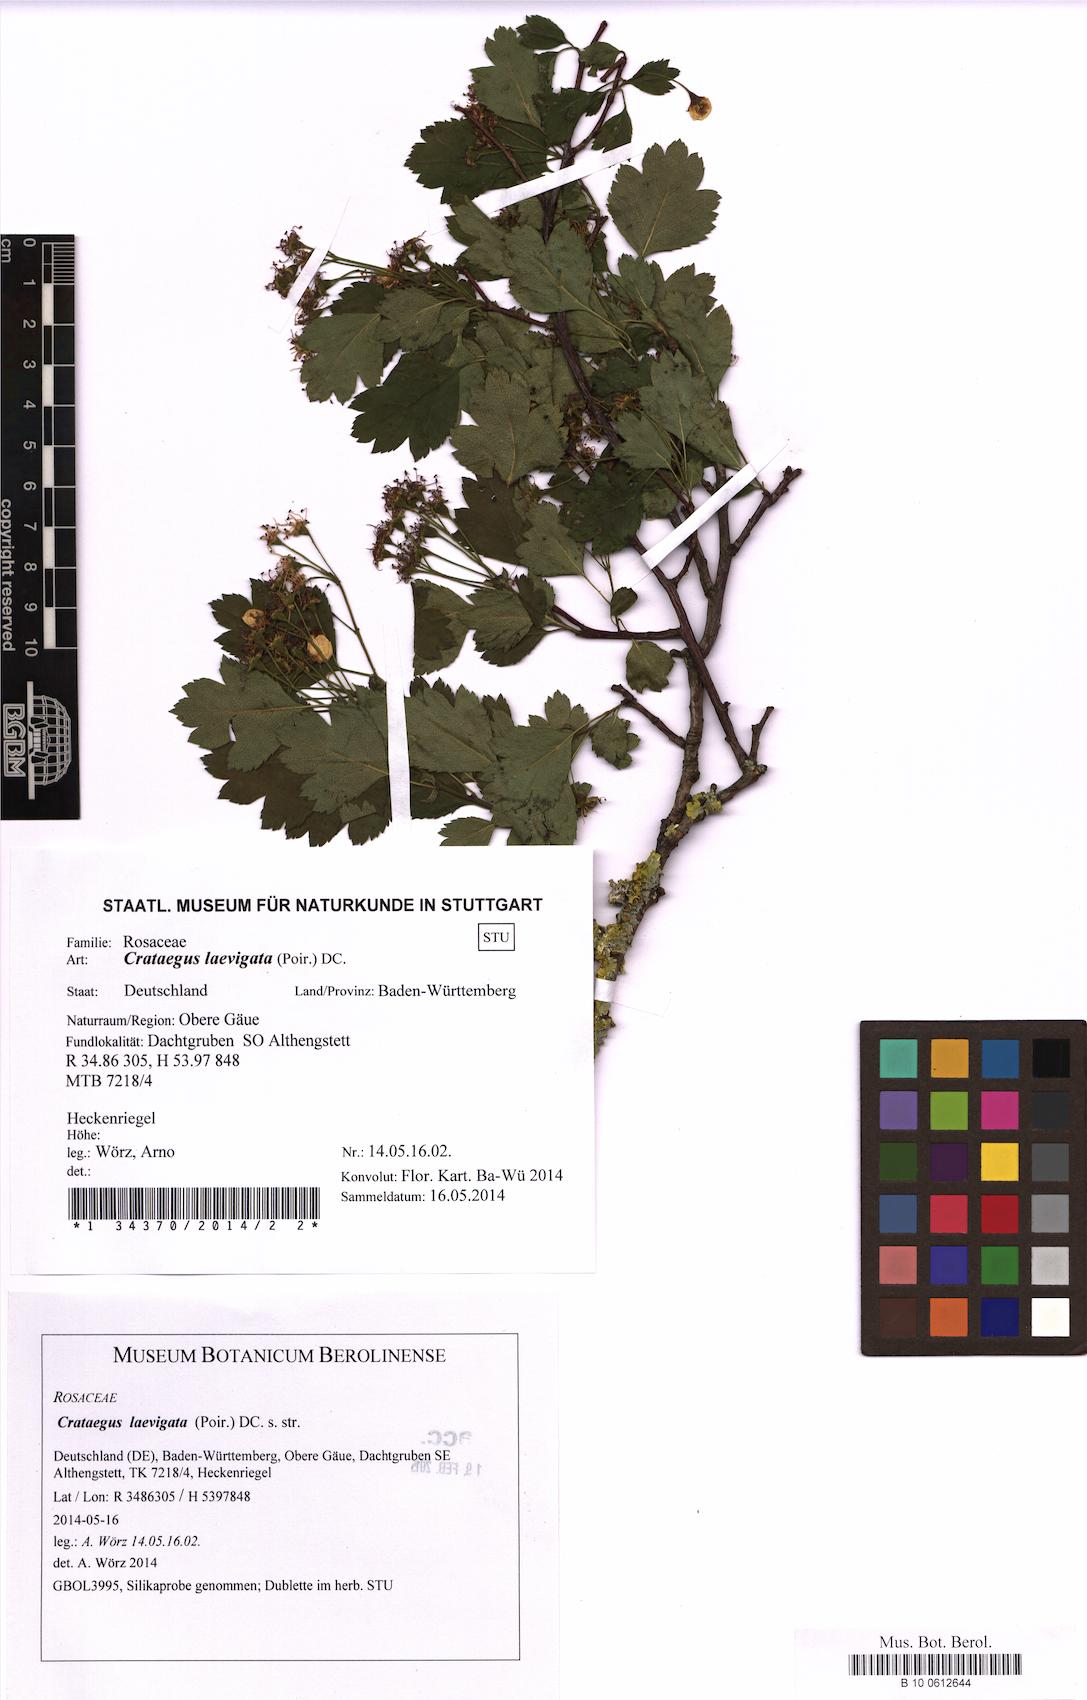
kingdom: Plantae
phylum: Tracheophyta
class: Magnoliopsida
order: Rosales
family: Rosaceae
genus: Crataegus
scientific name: Crataegus laevigata
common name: Midland hawthorn
